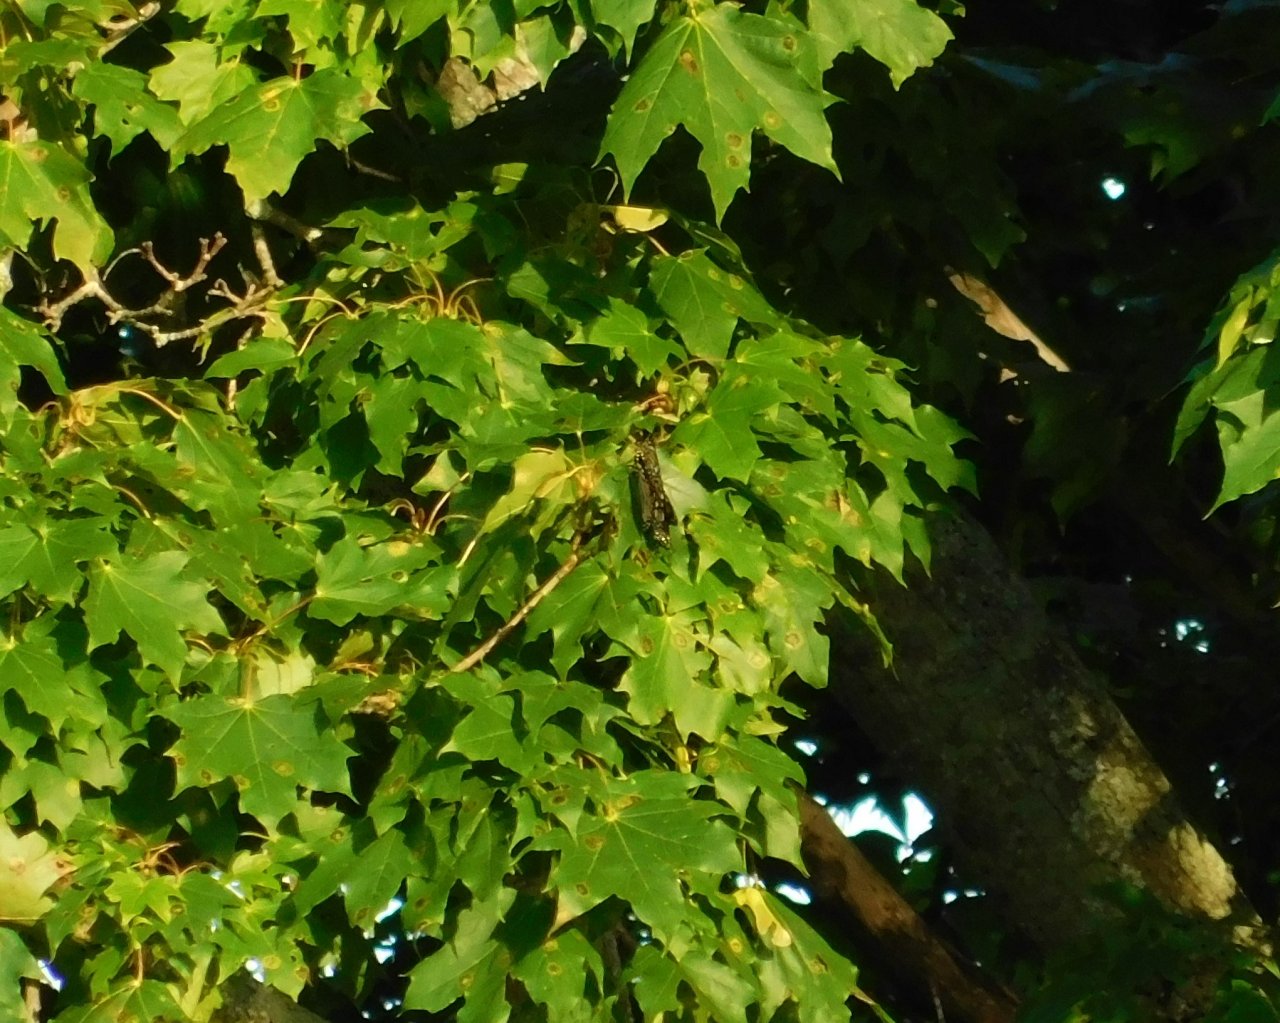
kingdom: Animalia
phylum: Arthropoda
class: Insecta
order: Lepidoptera
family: Nymphalidae
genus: Danaus
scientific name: Danaus plexippus
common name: Monarch
